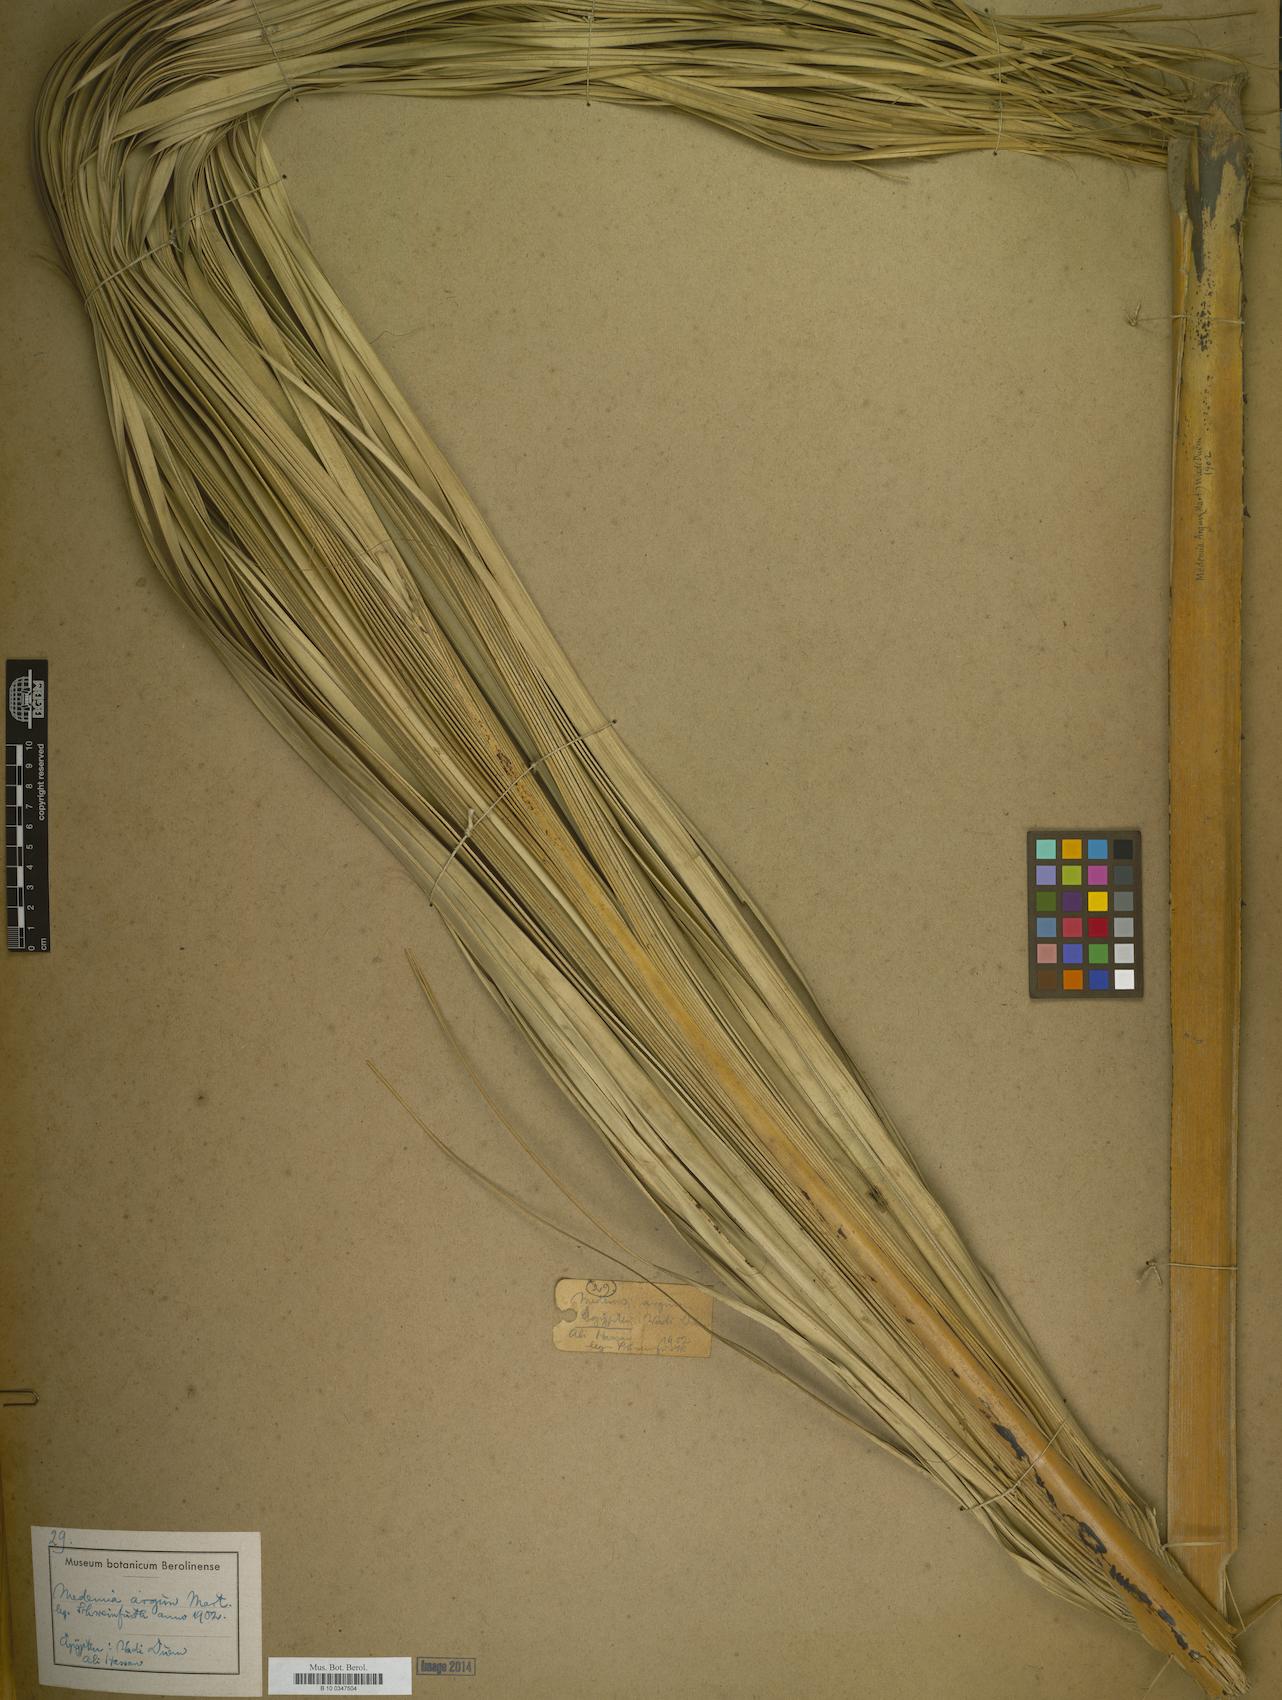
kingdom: Plantae
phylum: Tracheophyta
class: Liliopsida
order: Arecales
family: Arecaceae
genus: Medemia
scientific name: Medemia argun
